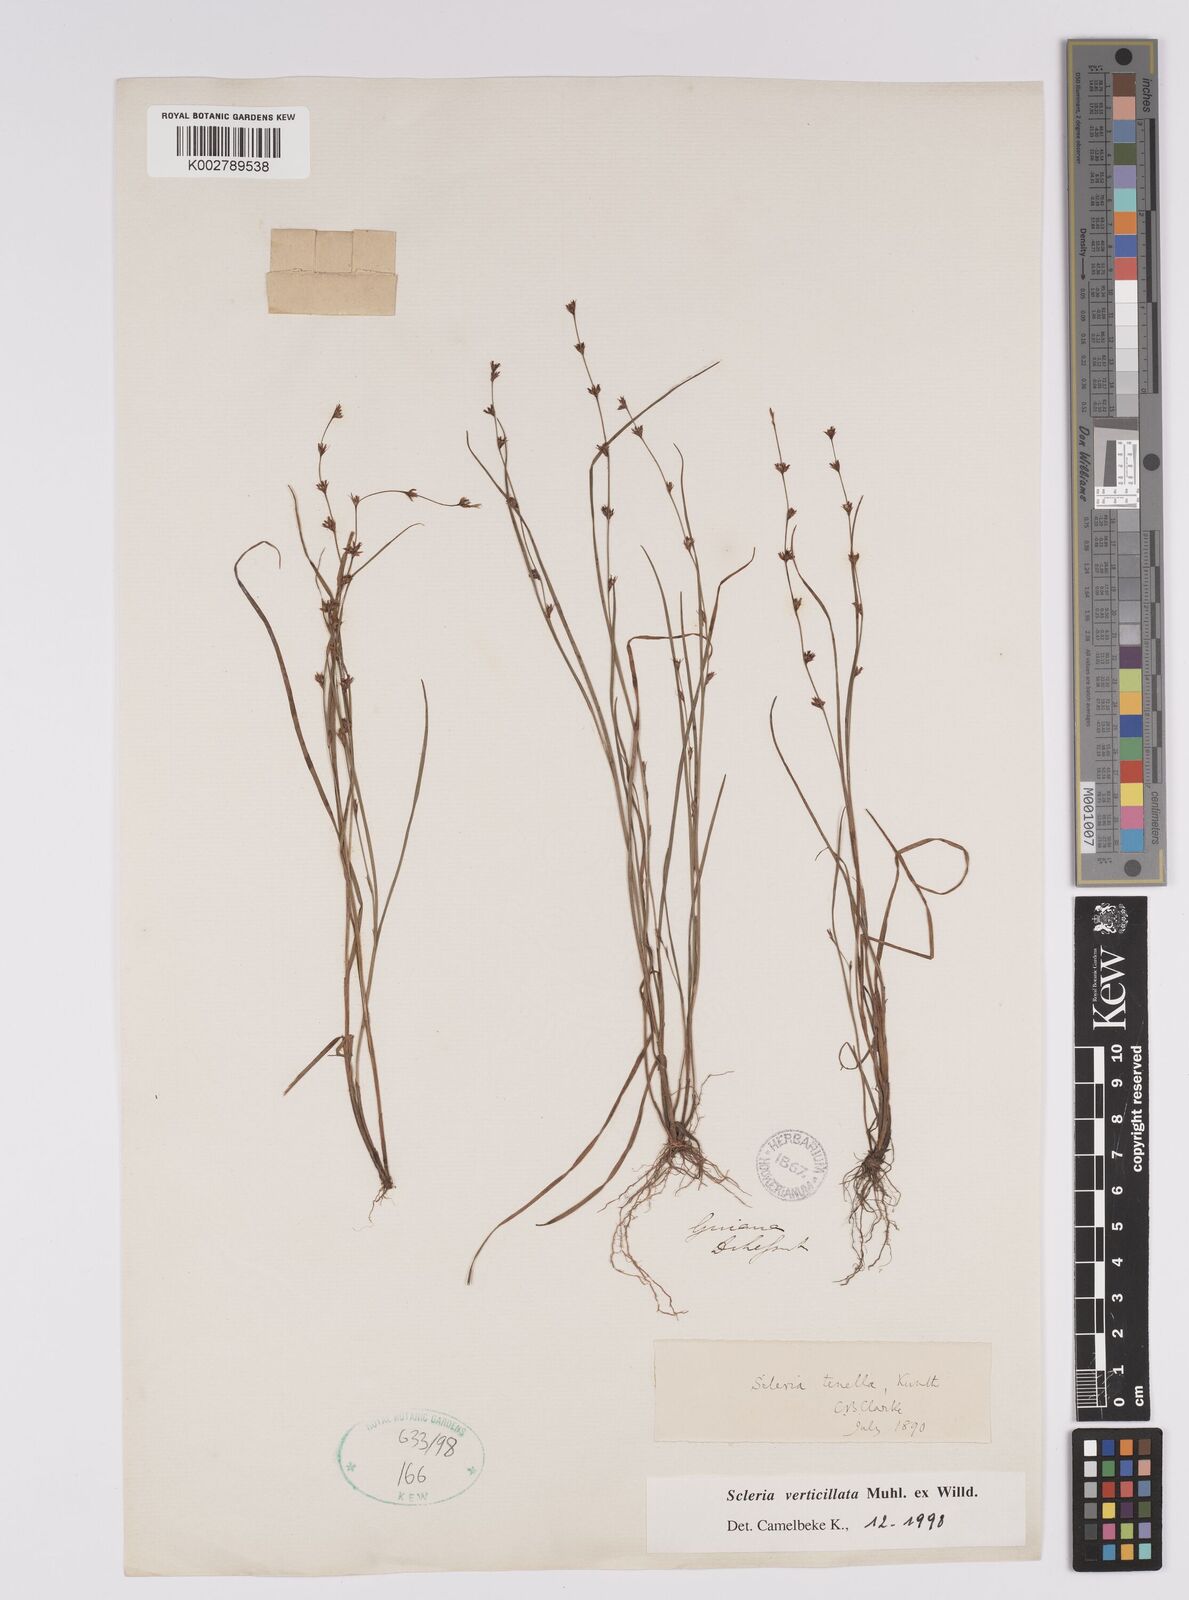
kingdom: Plantae
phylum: Tracheophyta
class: Liliopsida
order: Poales
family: Cyperaceae
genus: Scleria
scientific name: Scleria verticillata
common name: Low nutrush
